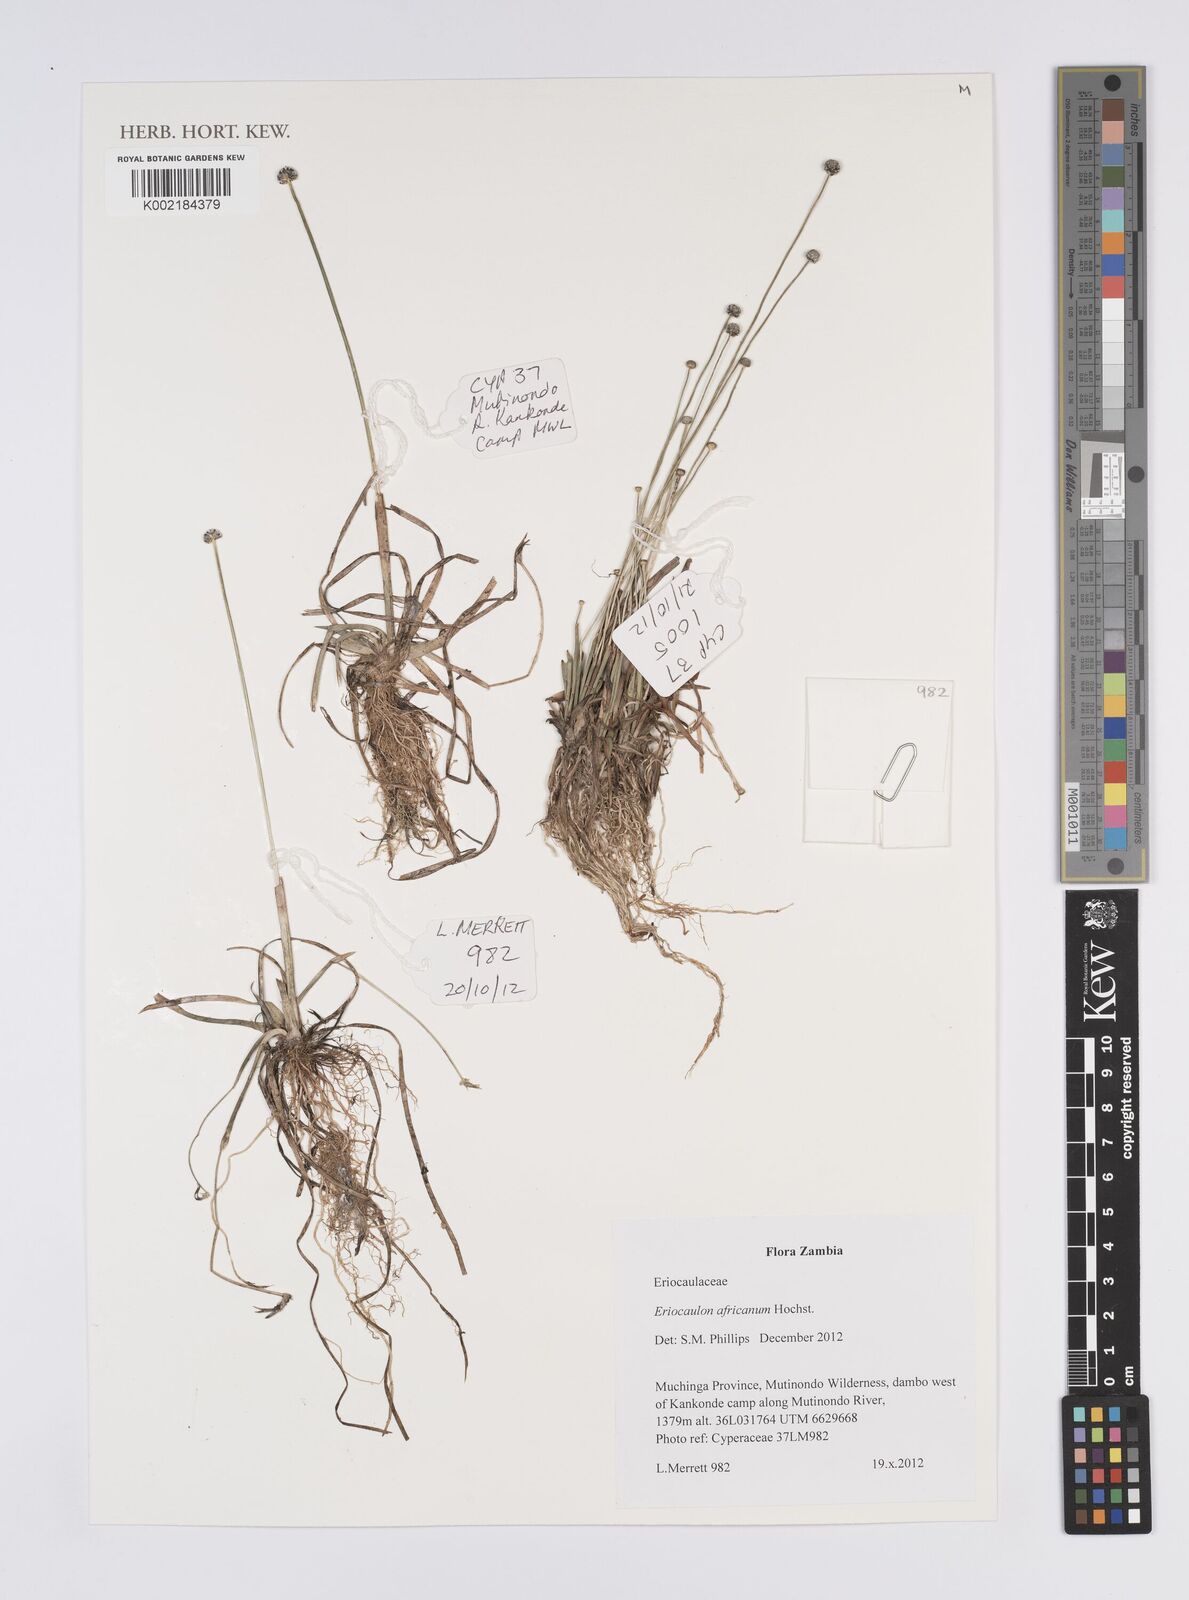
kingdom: Plantae
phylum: Tracheophyta
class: Liliopsida
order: Poales
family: Eriocaulaceae
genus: Eriocaulon
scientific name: Eriocaulon africanum
